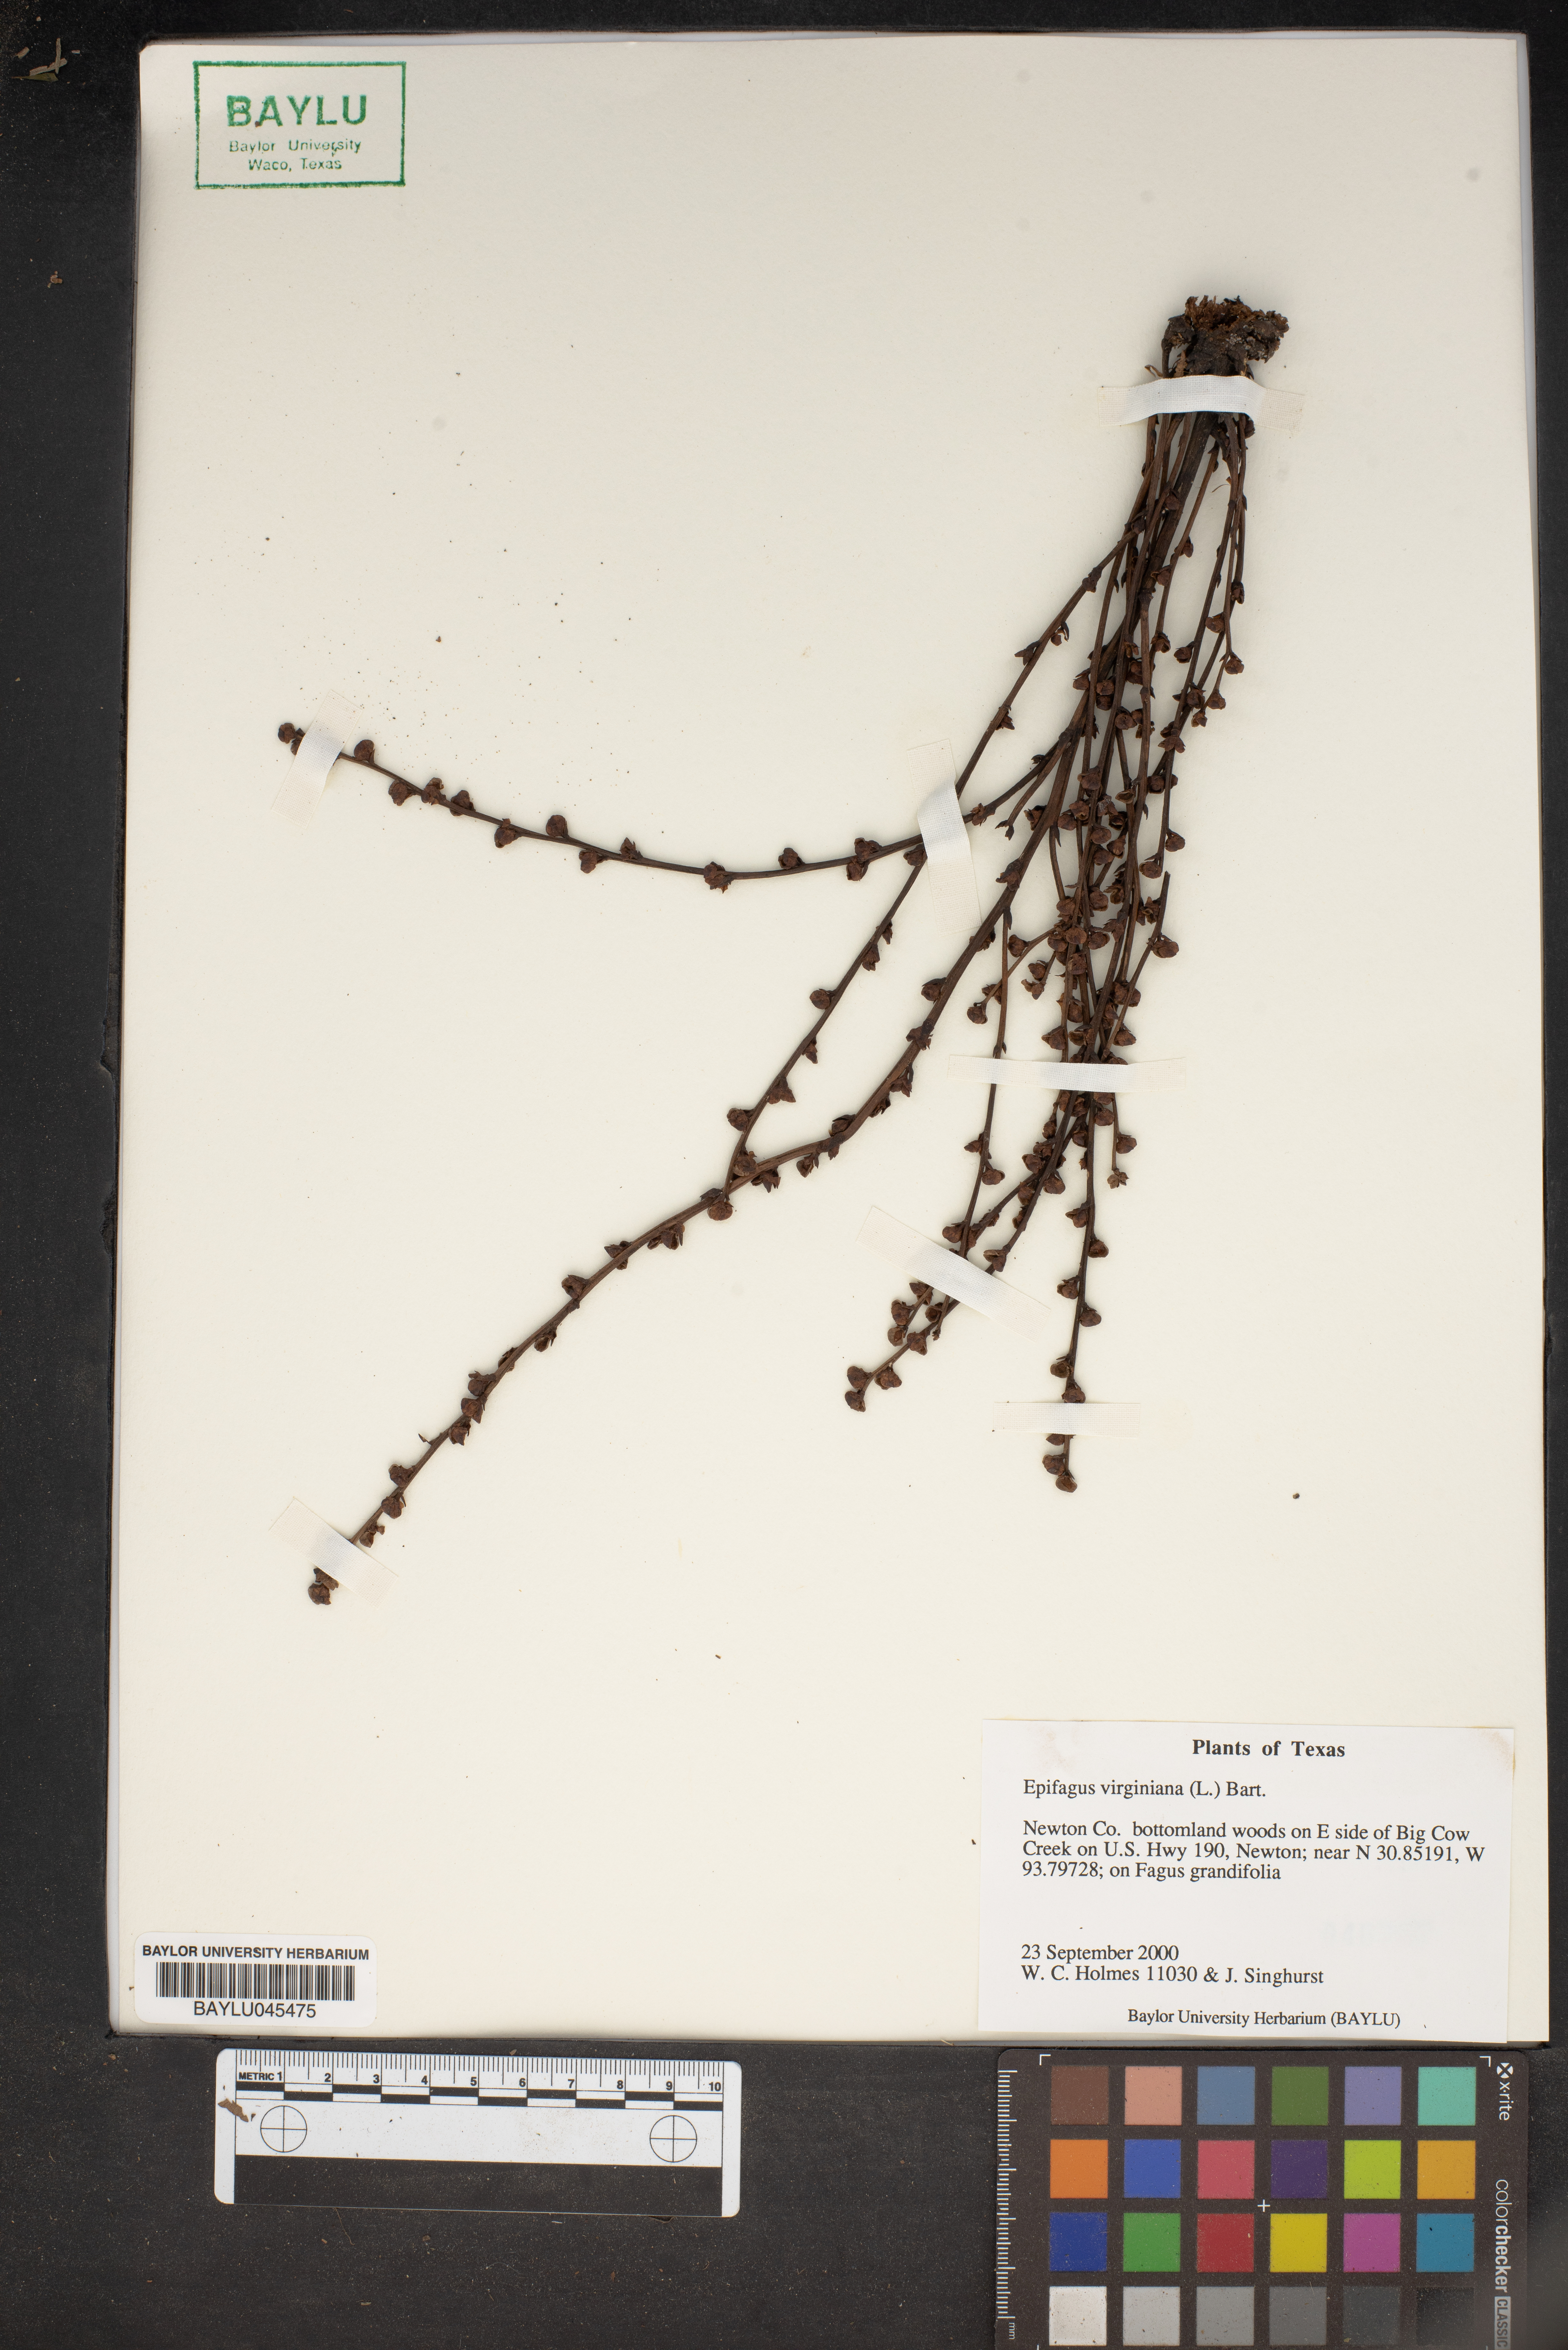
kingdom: Plantae
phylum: Tracheophyta
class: Magnoliopsida
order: Lamiales
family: Orobanchaceae
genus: Epifagus
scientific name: Epifagus virginiana
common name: Beechdrops
